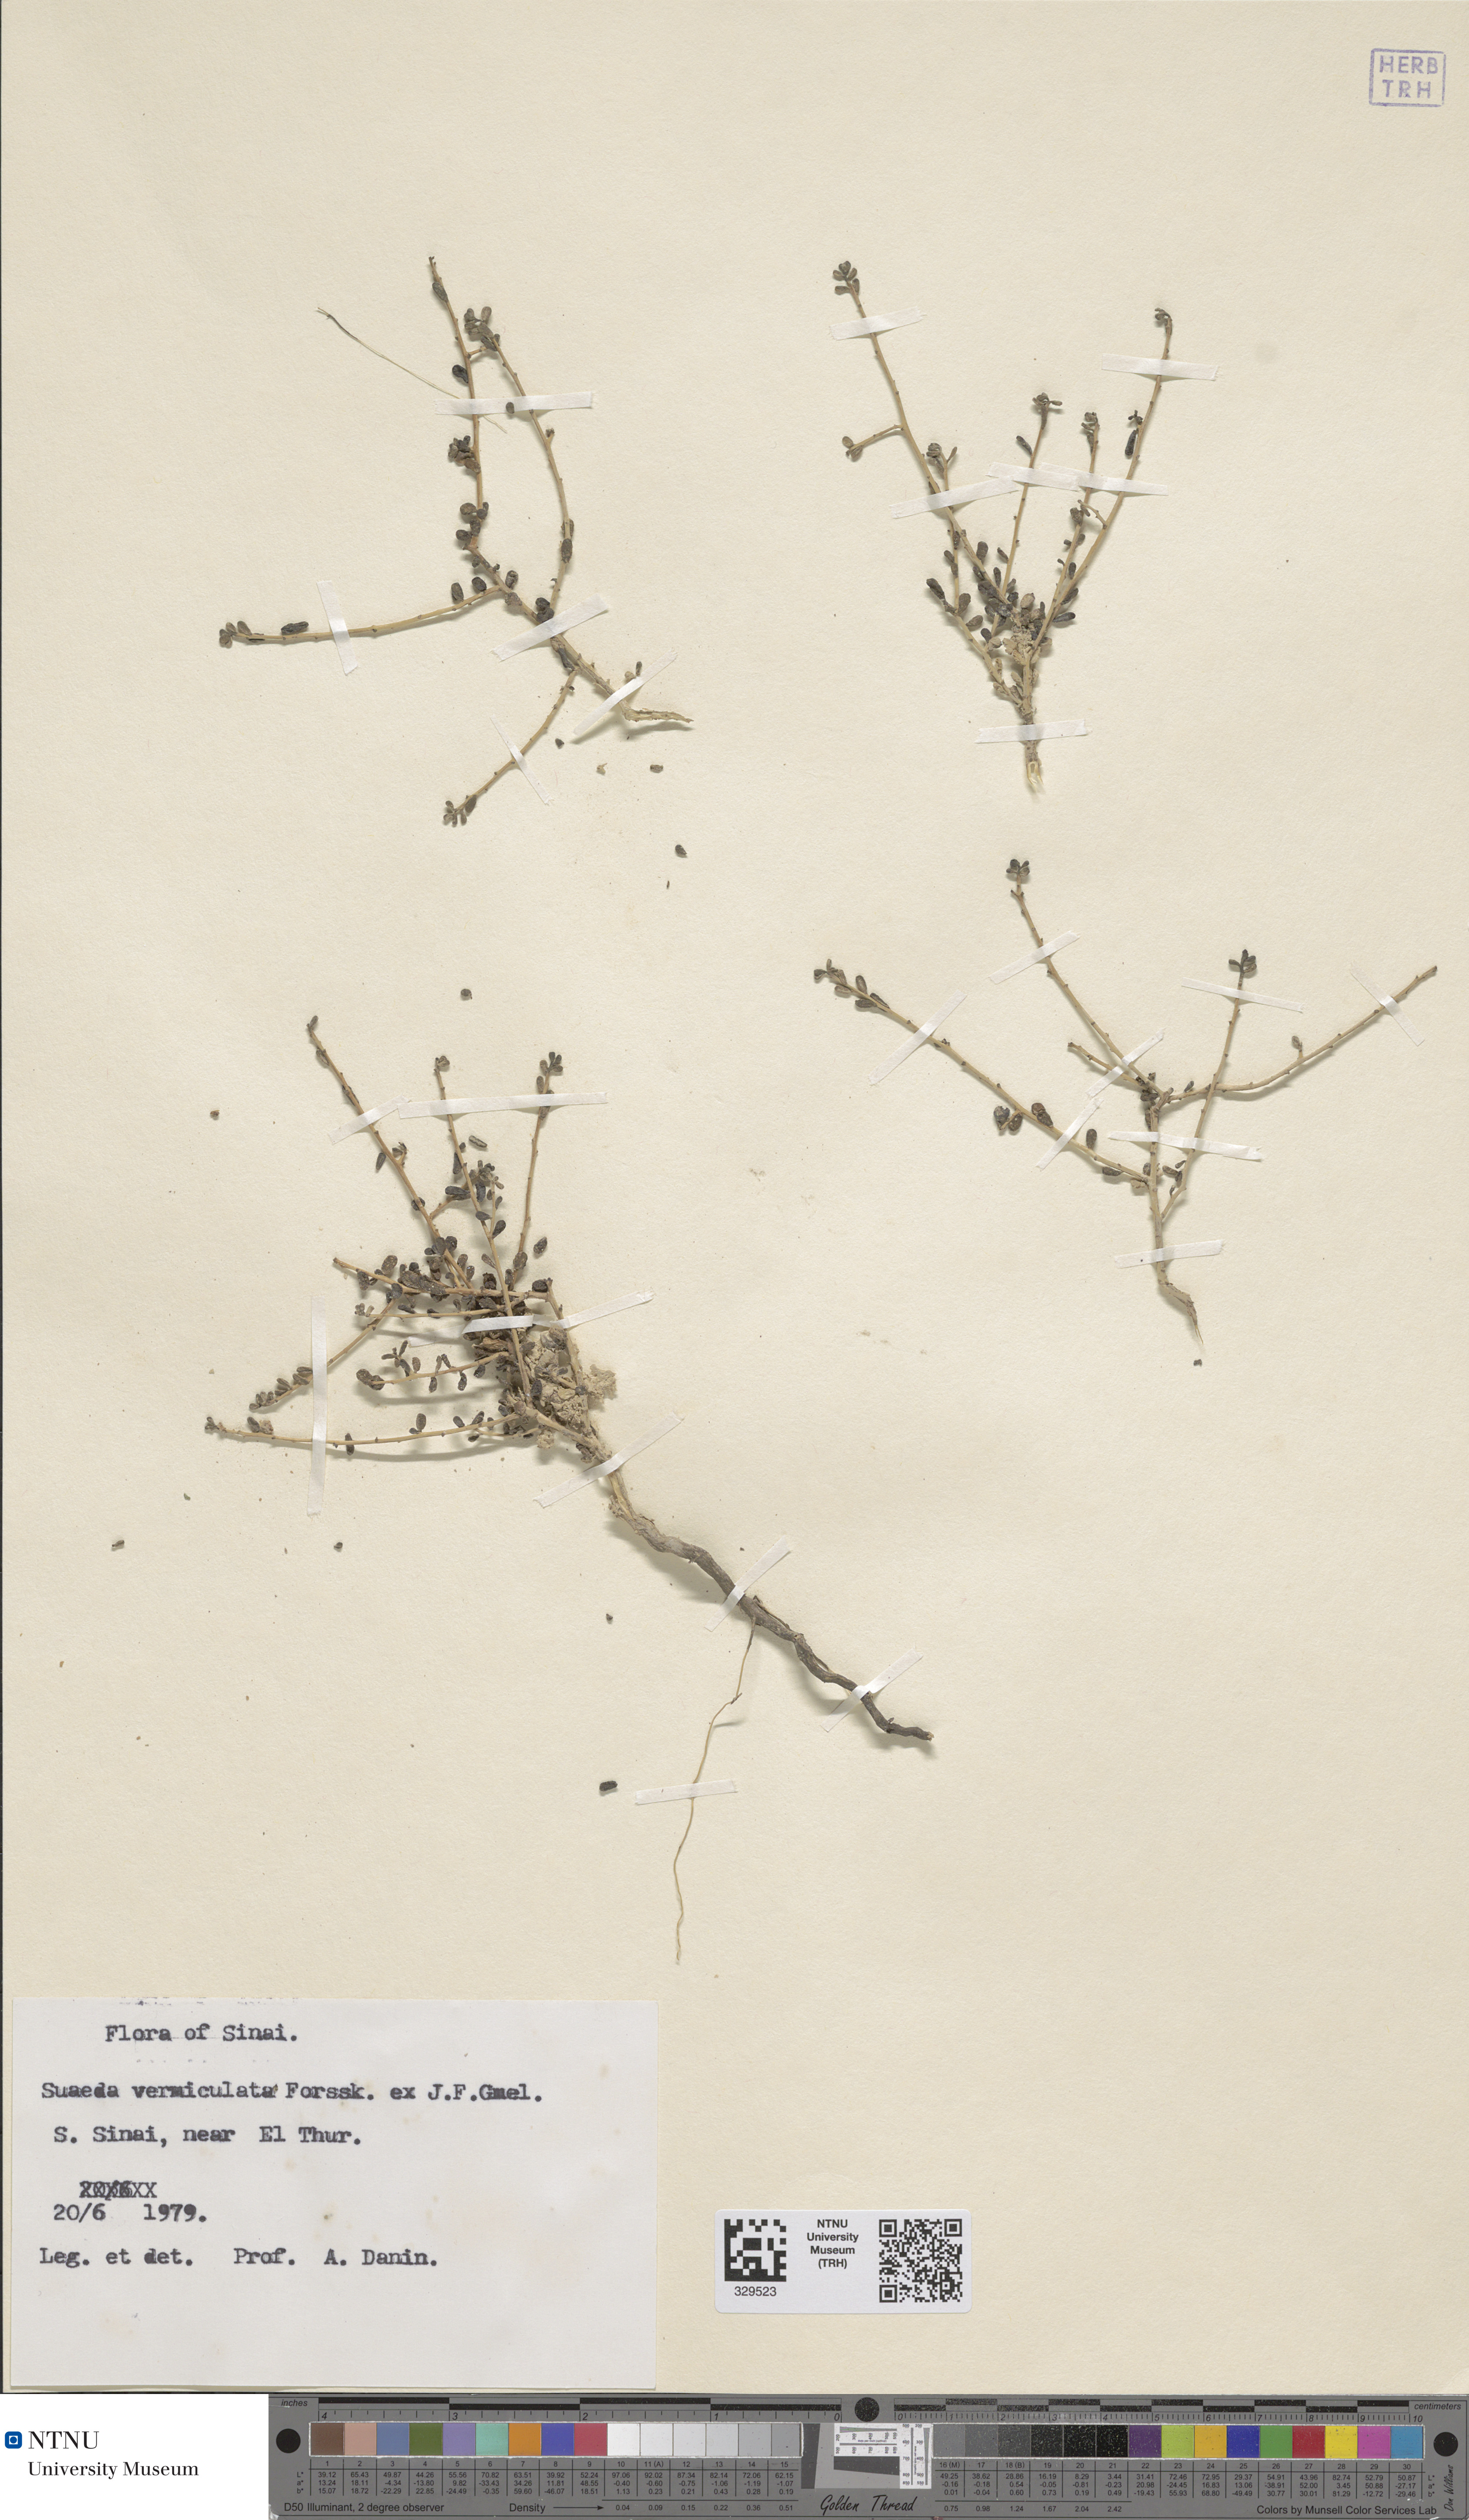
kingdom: Plantae
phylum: Tracheophyta
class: Magnoliopsida
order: Caryophyllales
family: Amaranthaceae
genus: Suaeda
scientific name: Suaeda vermiculata
